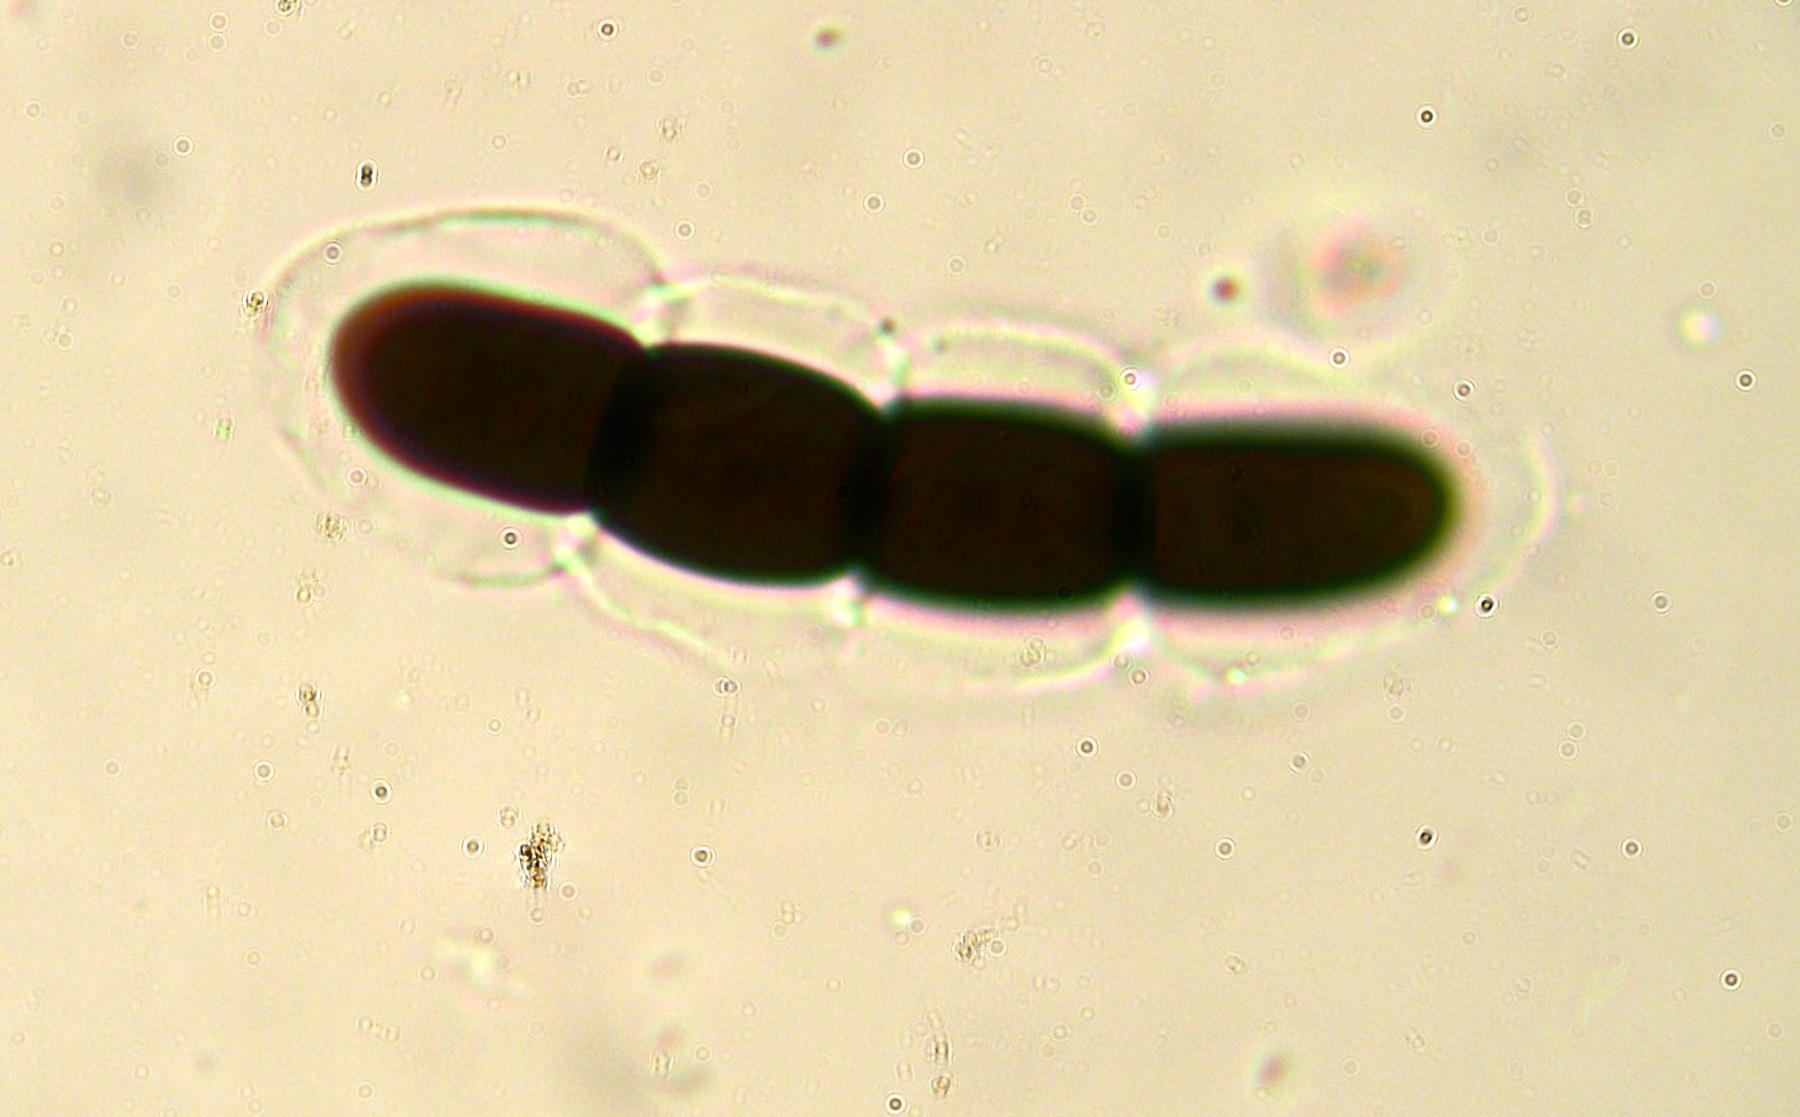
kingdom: Fungi
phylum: Ascomycota
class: Dothideomycetes
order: Pleosporales
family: Sporormiaceae
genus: Sporormiella
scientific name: Sporormiella intermedia
